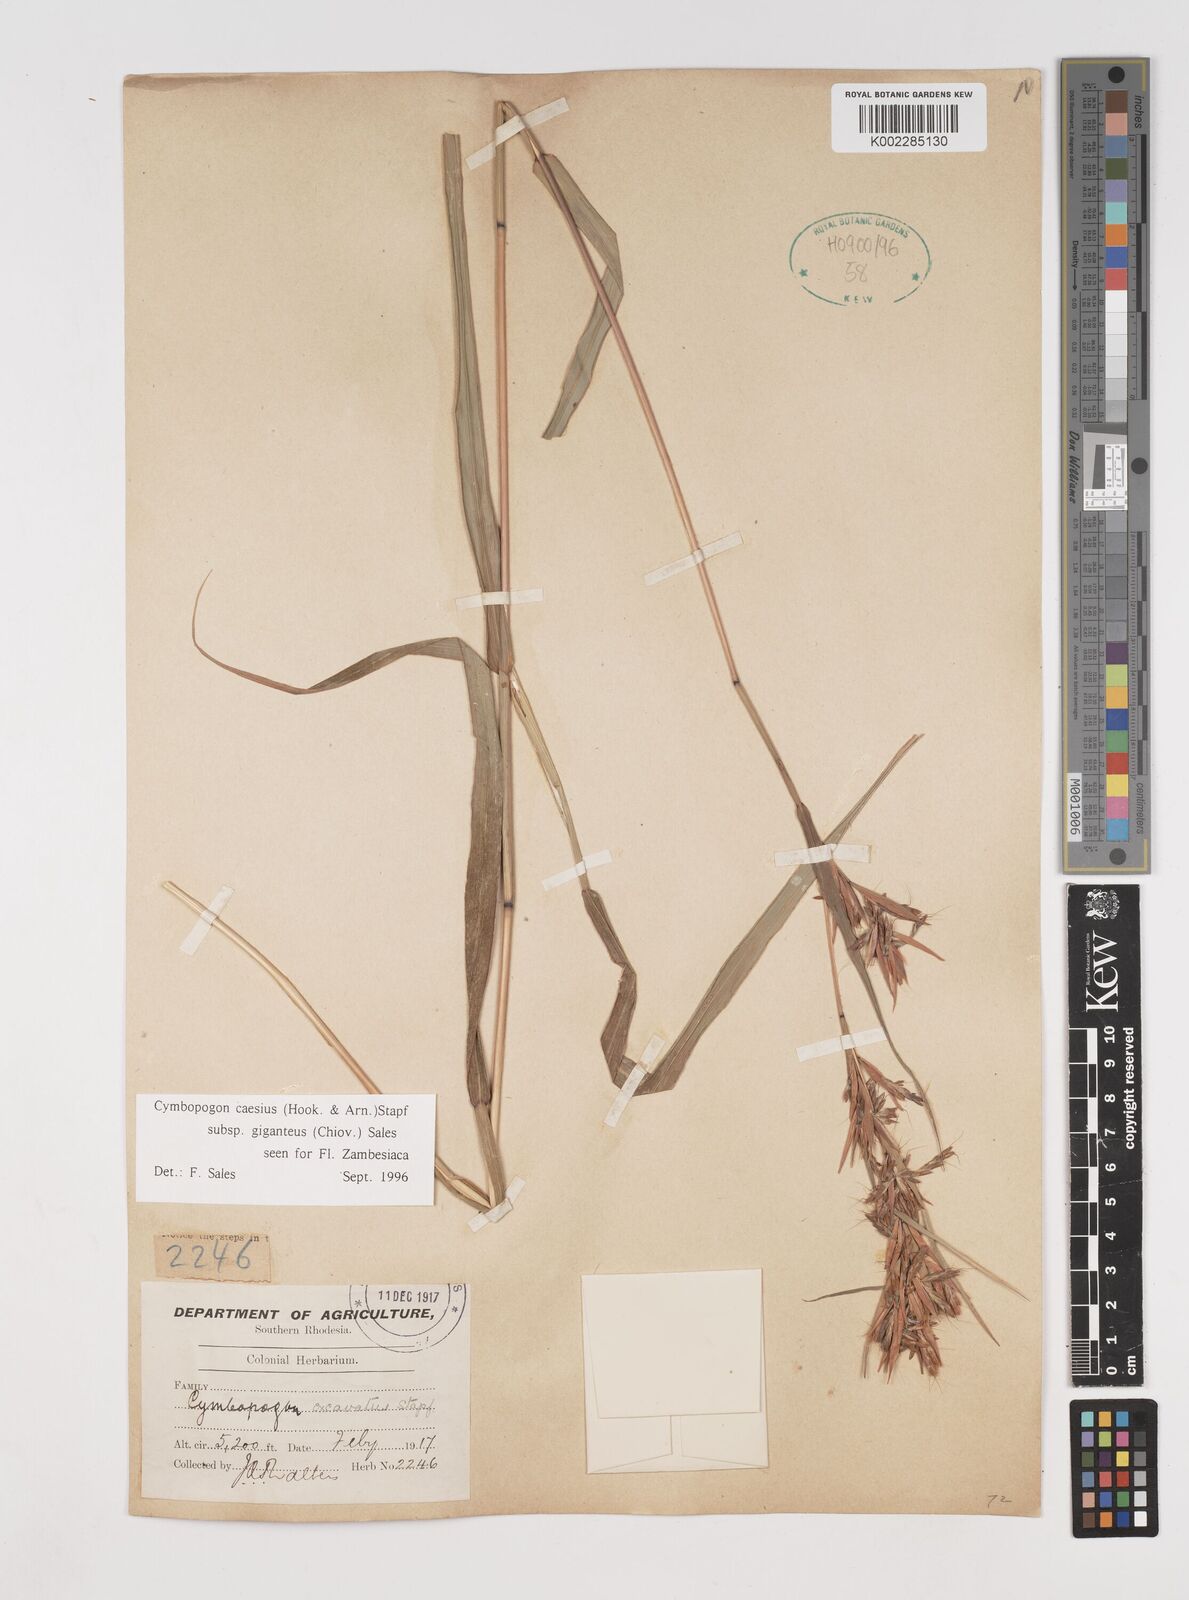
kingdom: Plantae
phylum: Tracheophyta
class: Liliopsida
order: Poales
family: Poaceae
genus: Cymbopogon
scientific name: Cymbopogon giganteus
